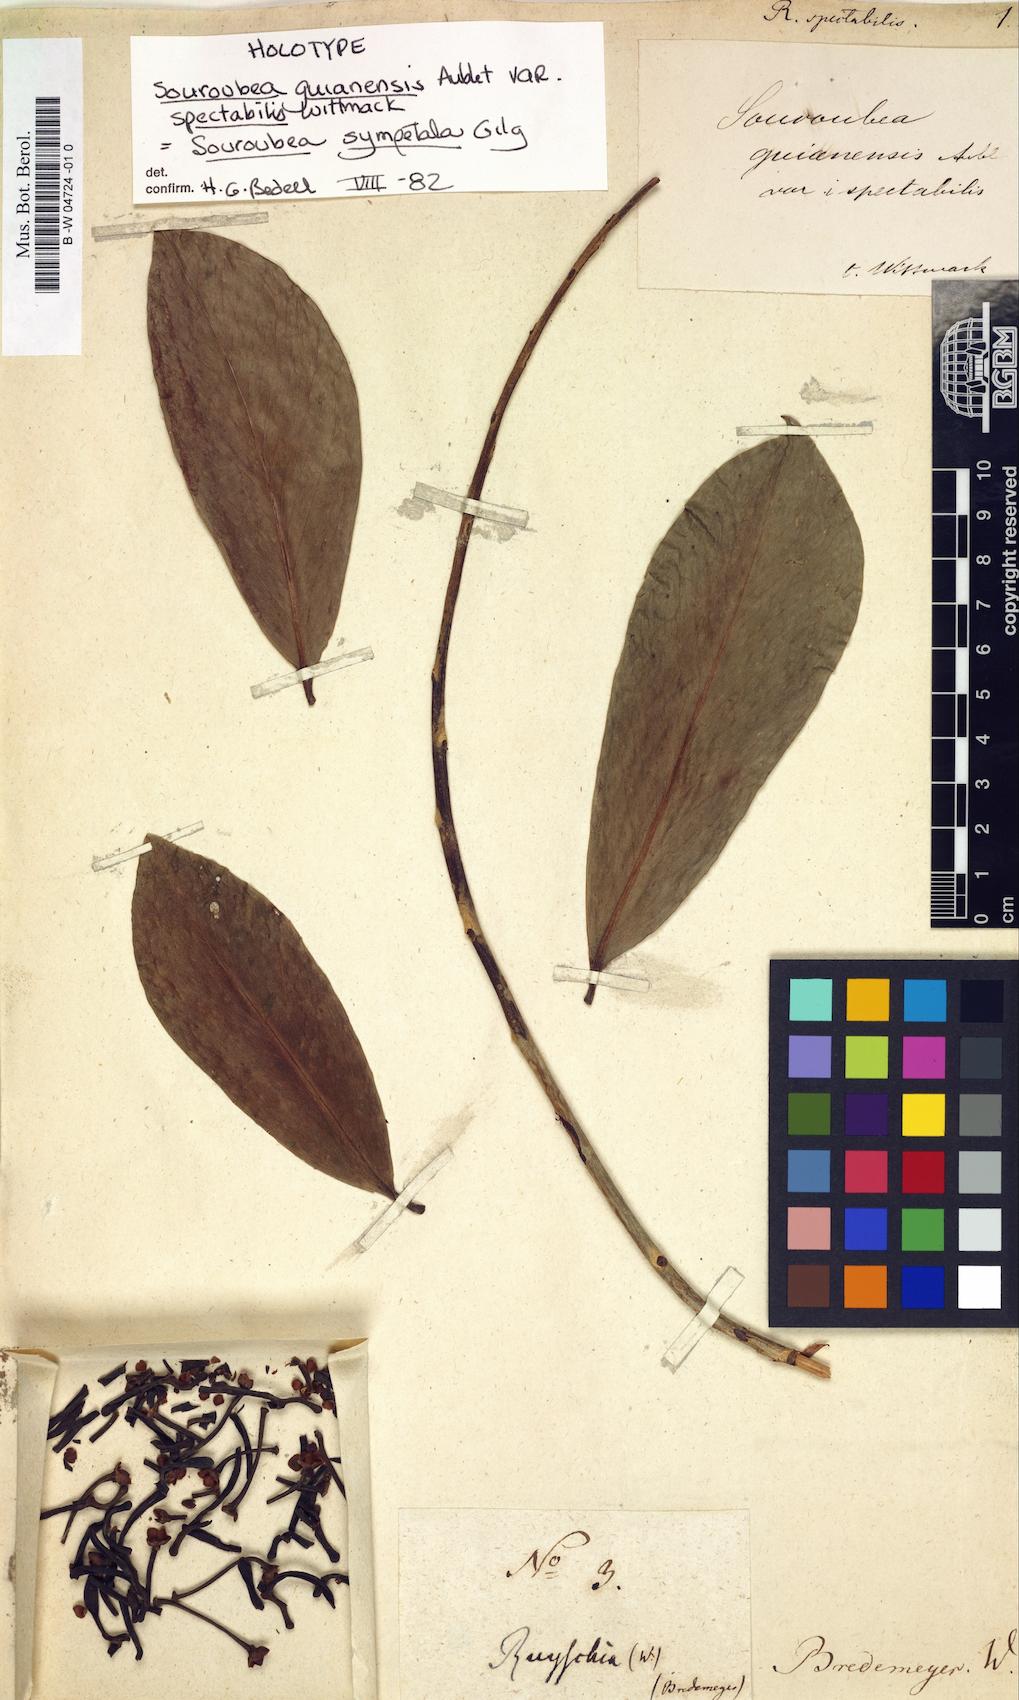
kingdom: Plantae
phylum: Tracheophyta
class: Magnoliopsida
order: Ericales
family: Marcgraviaceae
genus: Ruyschia
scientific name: Ruyschia
